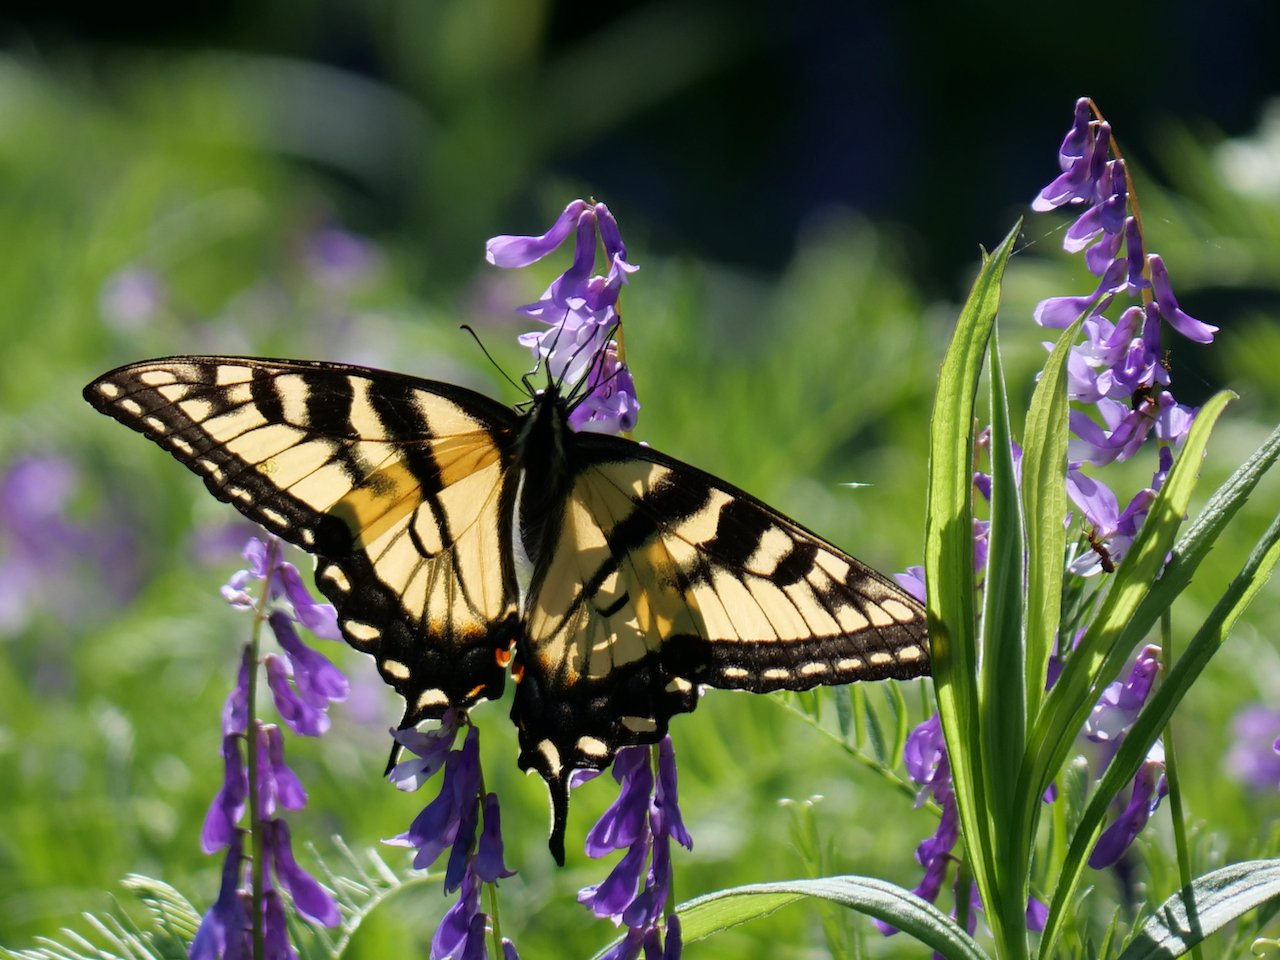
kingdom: Animalia
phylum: Arthropoda
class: Insecta
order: Lepidoptera
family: Papilionidae
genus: Pterourus
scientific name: Pterourus glaucus
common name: Eastern Tiger Swallowtail
